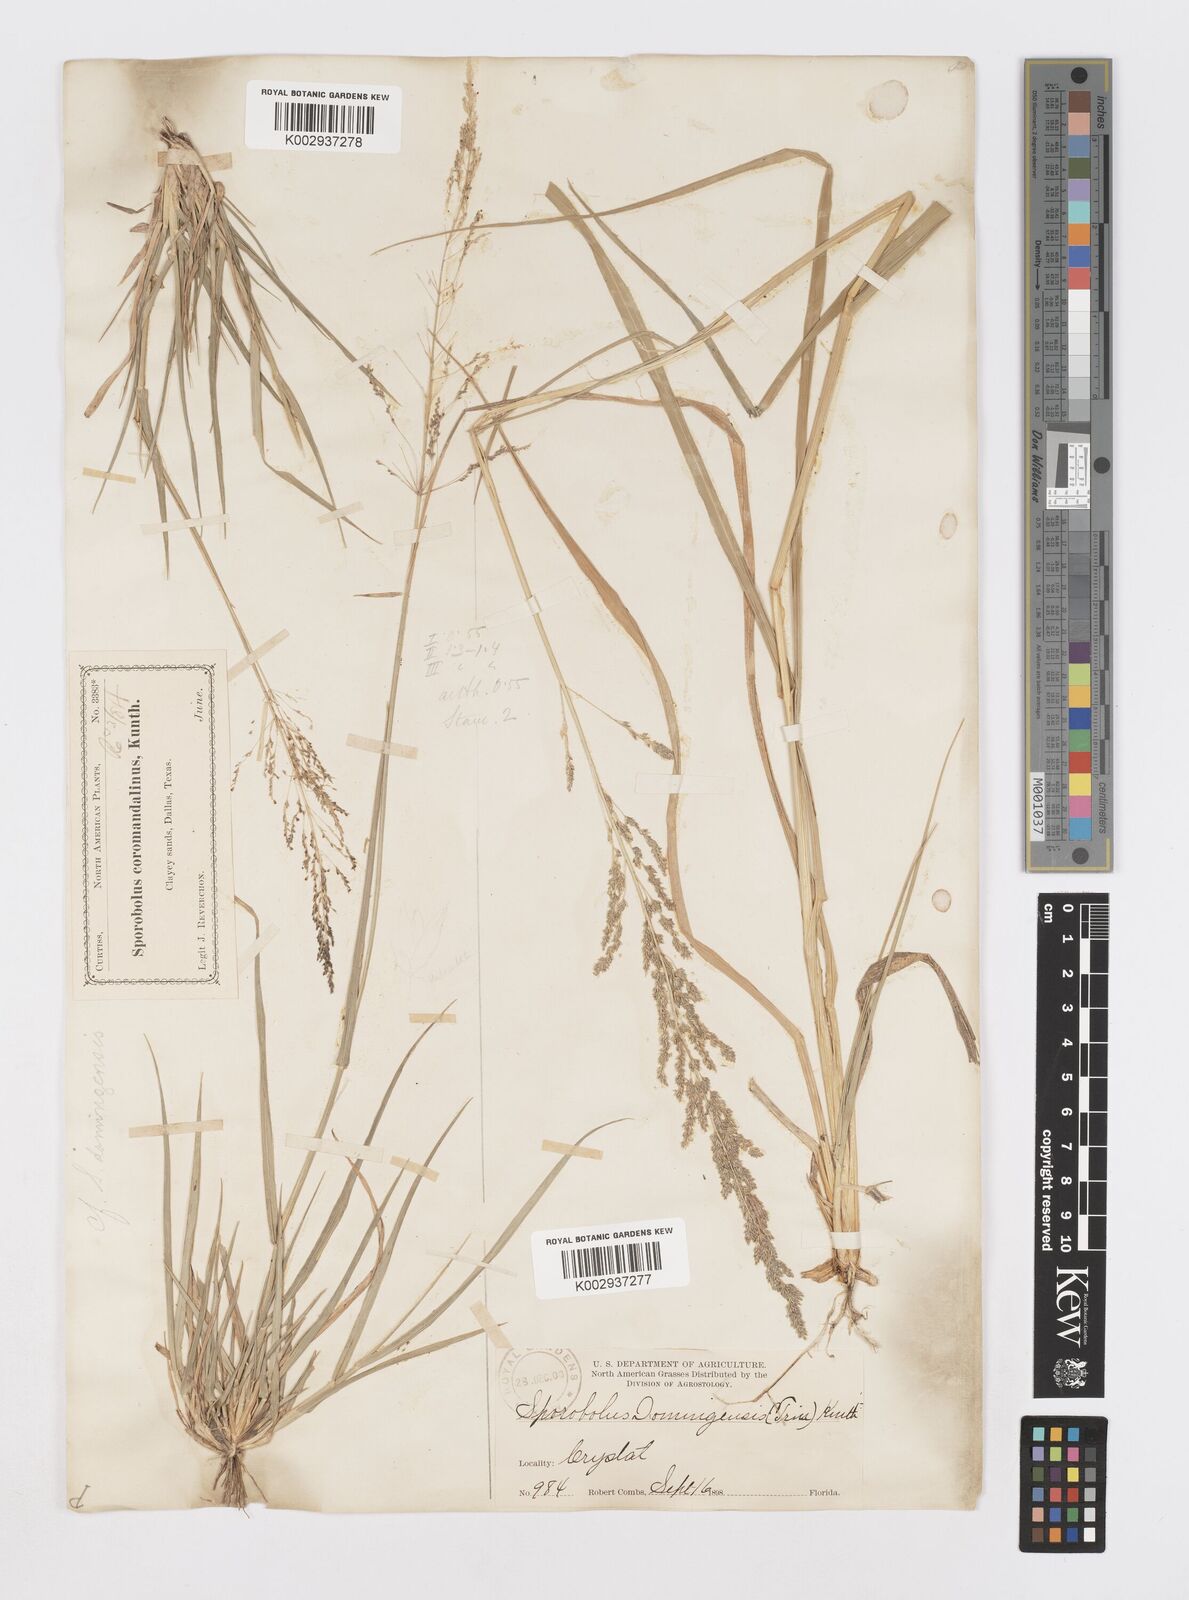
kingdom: Plantae
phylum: Tracheophyta
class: Liliopsida
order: Poales
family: Poaceae
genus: Sporobolus
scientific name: Sporobolus domingensis
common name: Coral dropseed
